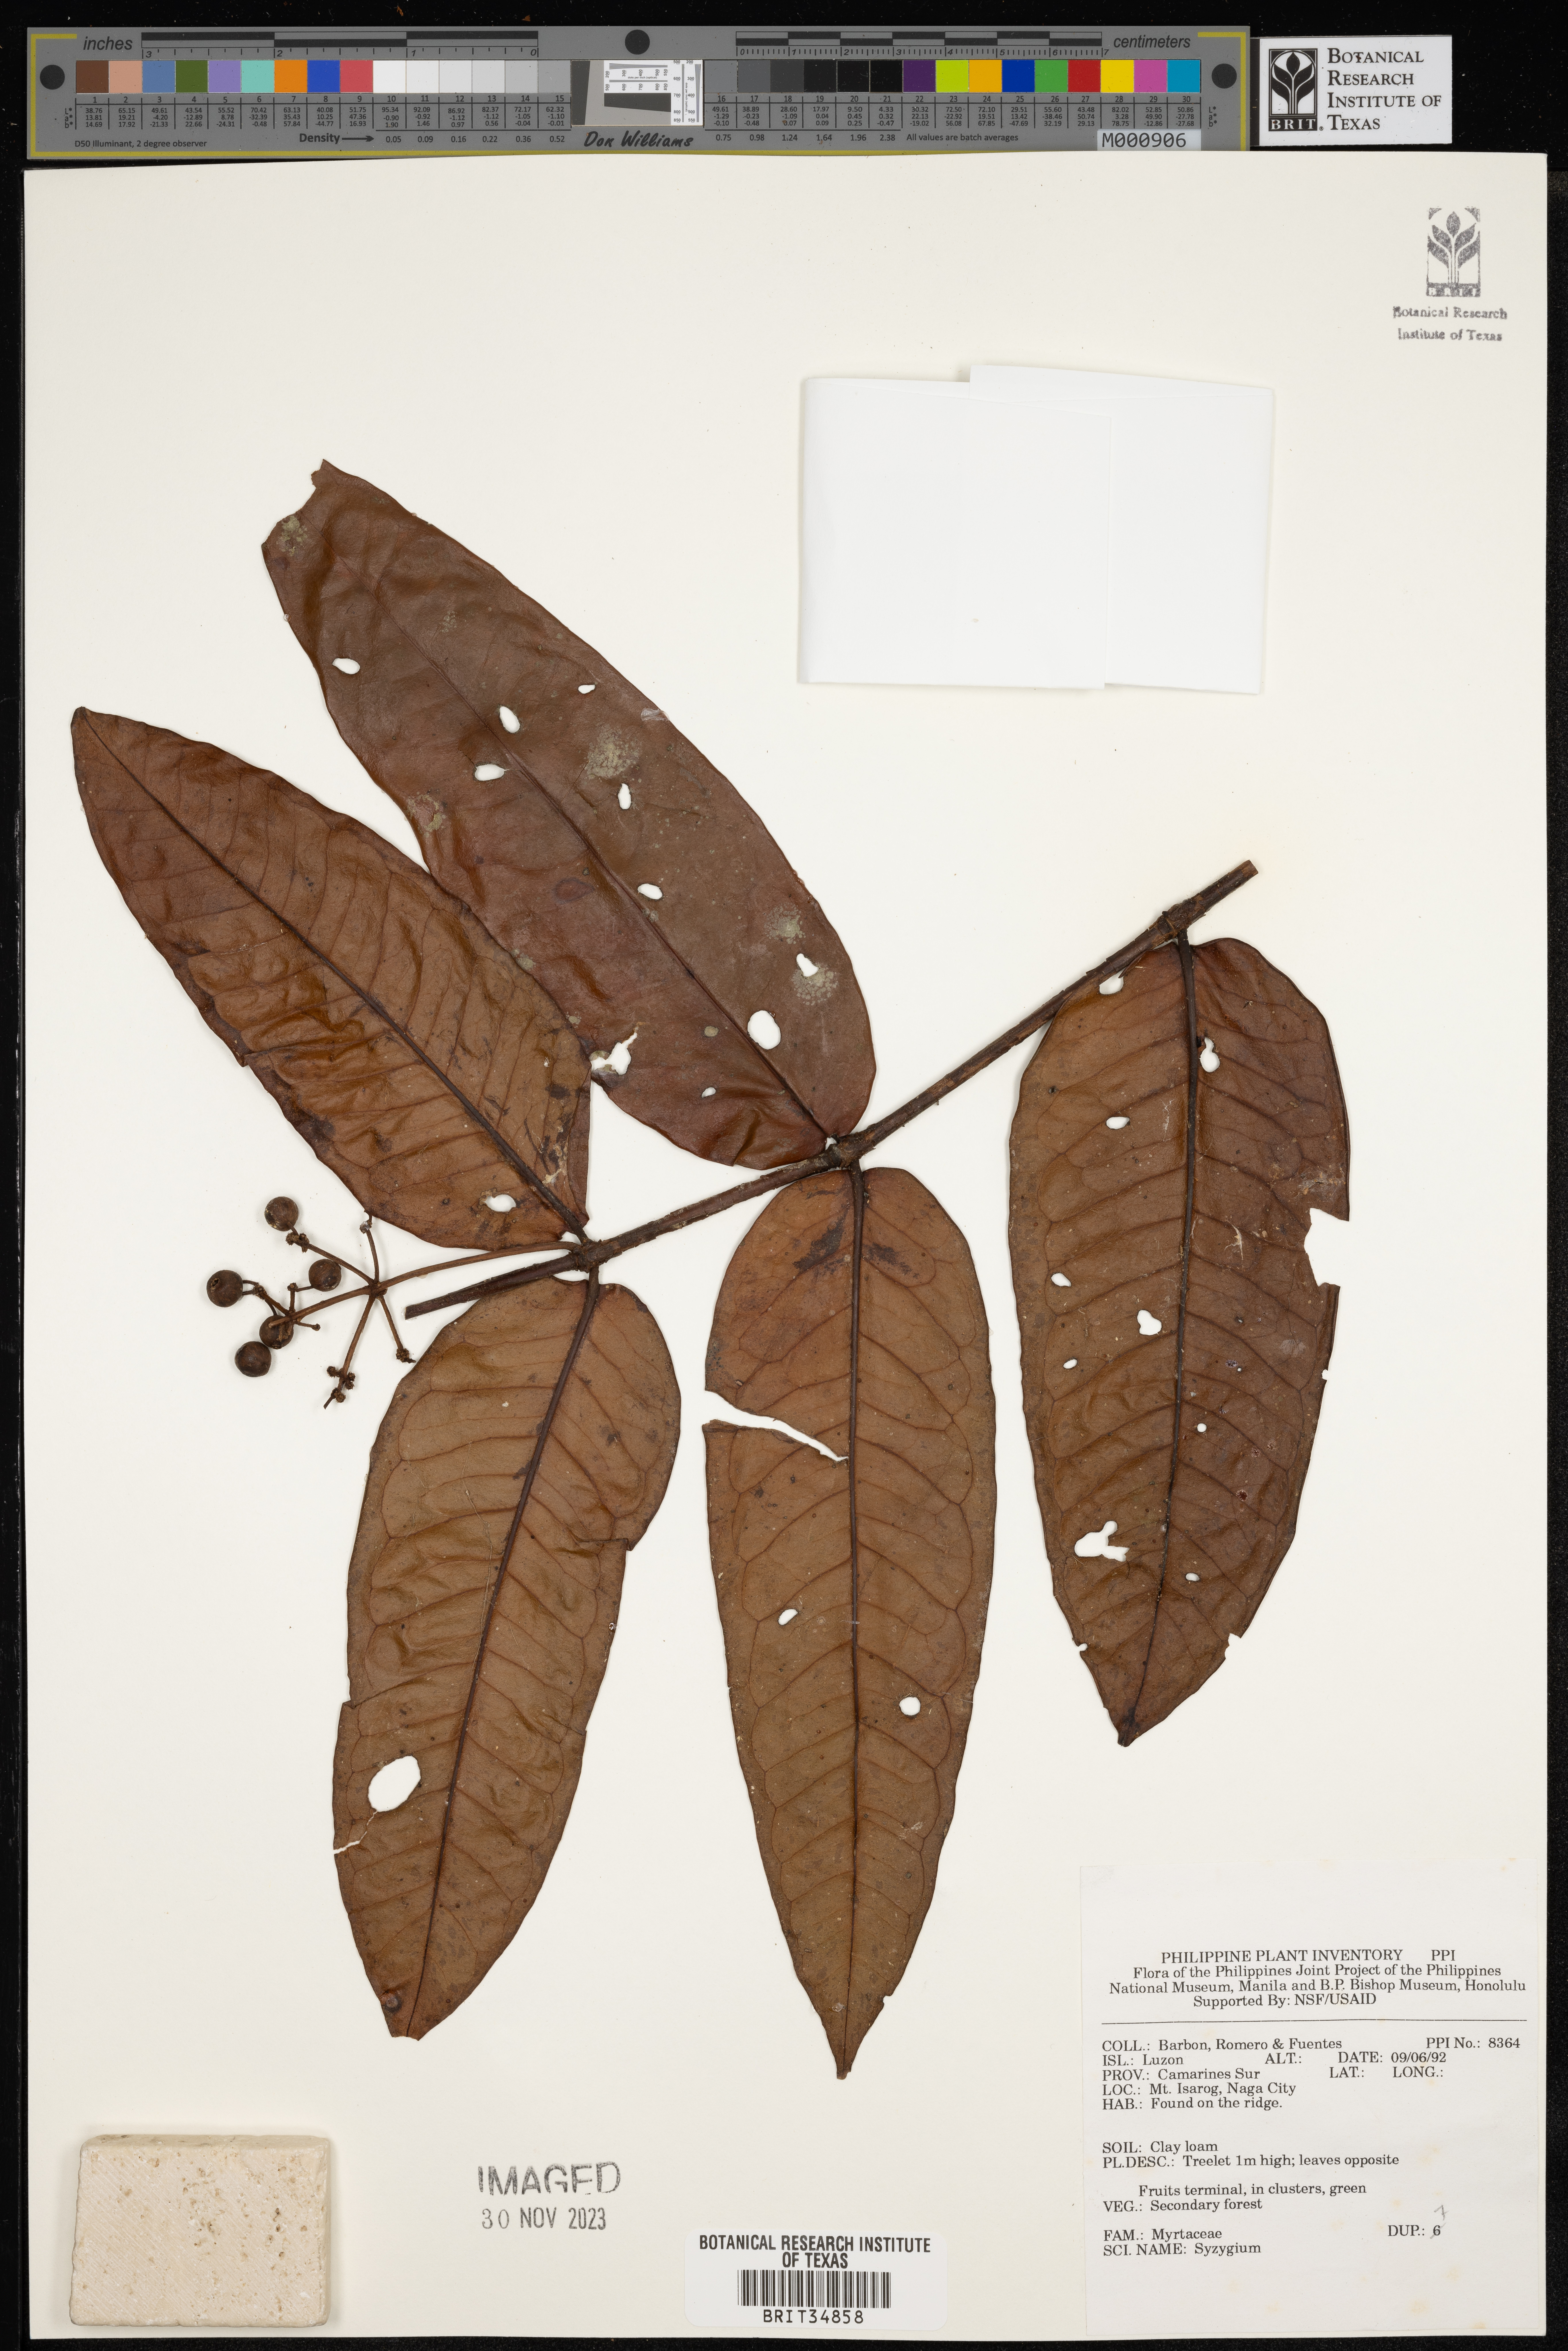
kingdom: Plantae
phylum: Tracheophyta
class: Magnoliopsida
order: Myrtales
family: Myrtaceae
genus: Syzygium
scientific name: Syzygium
